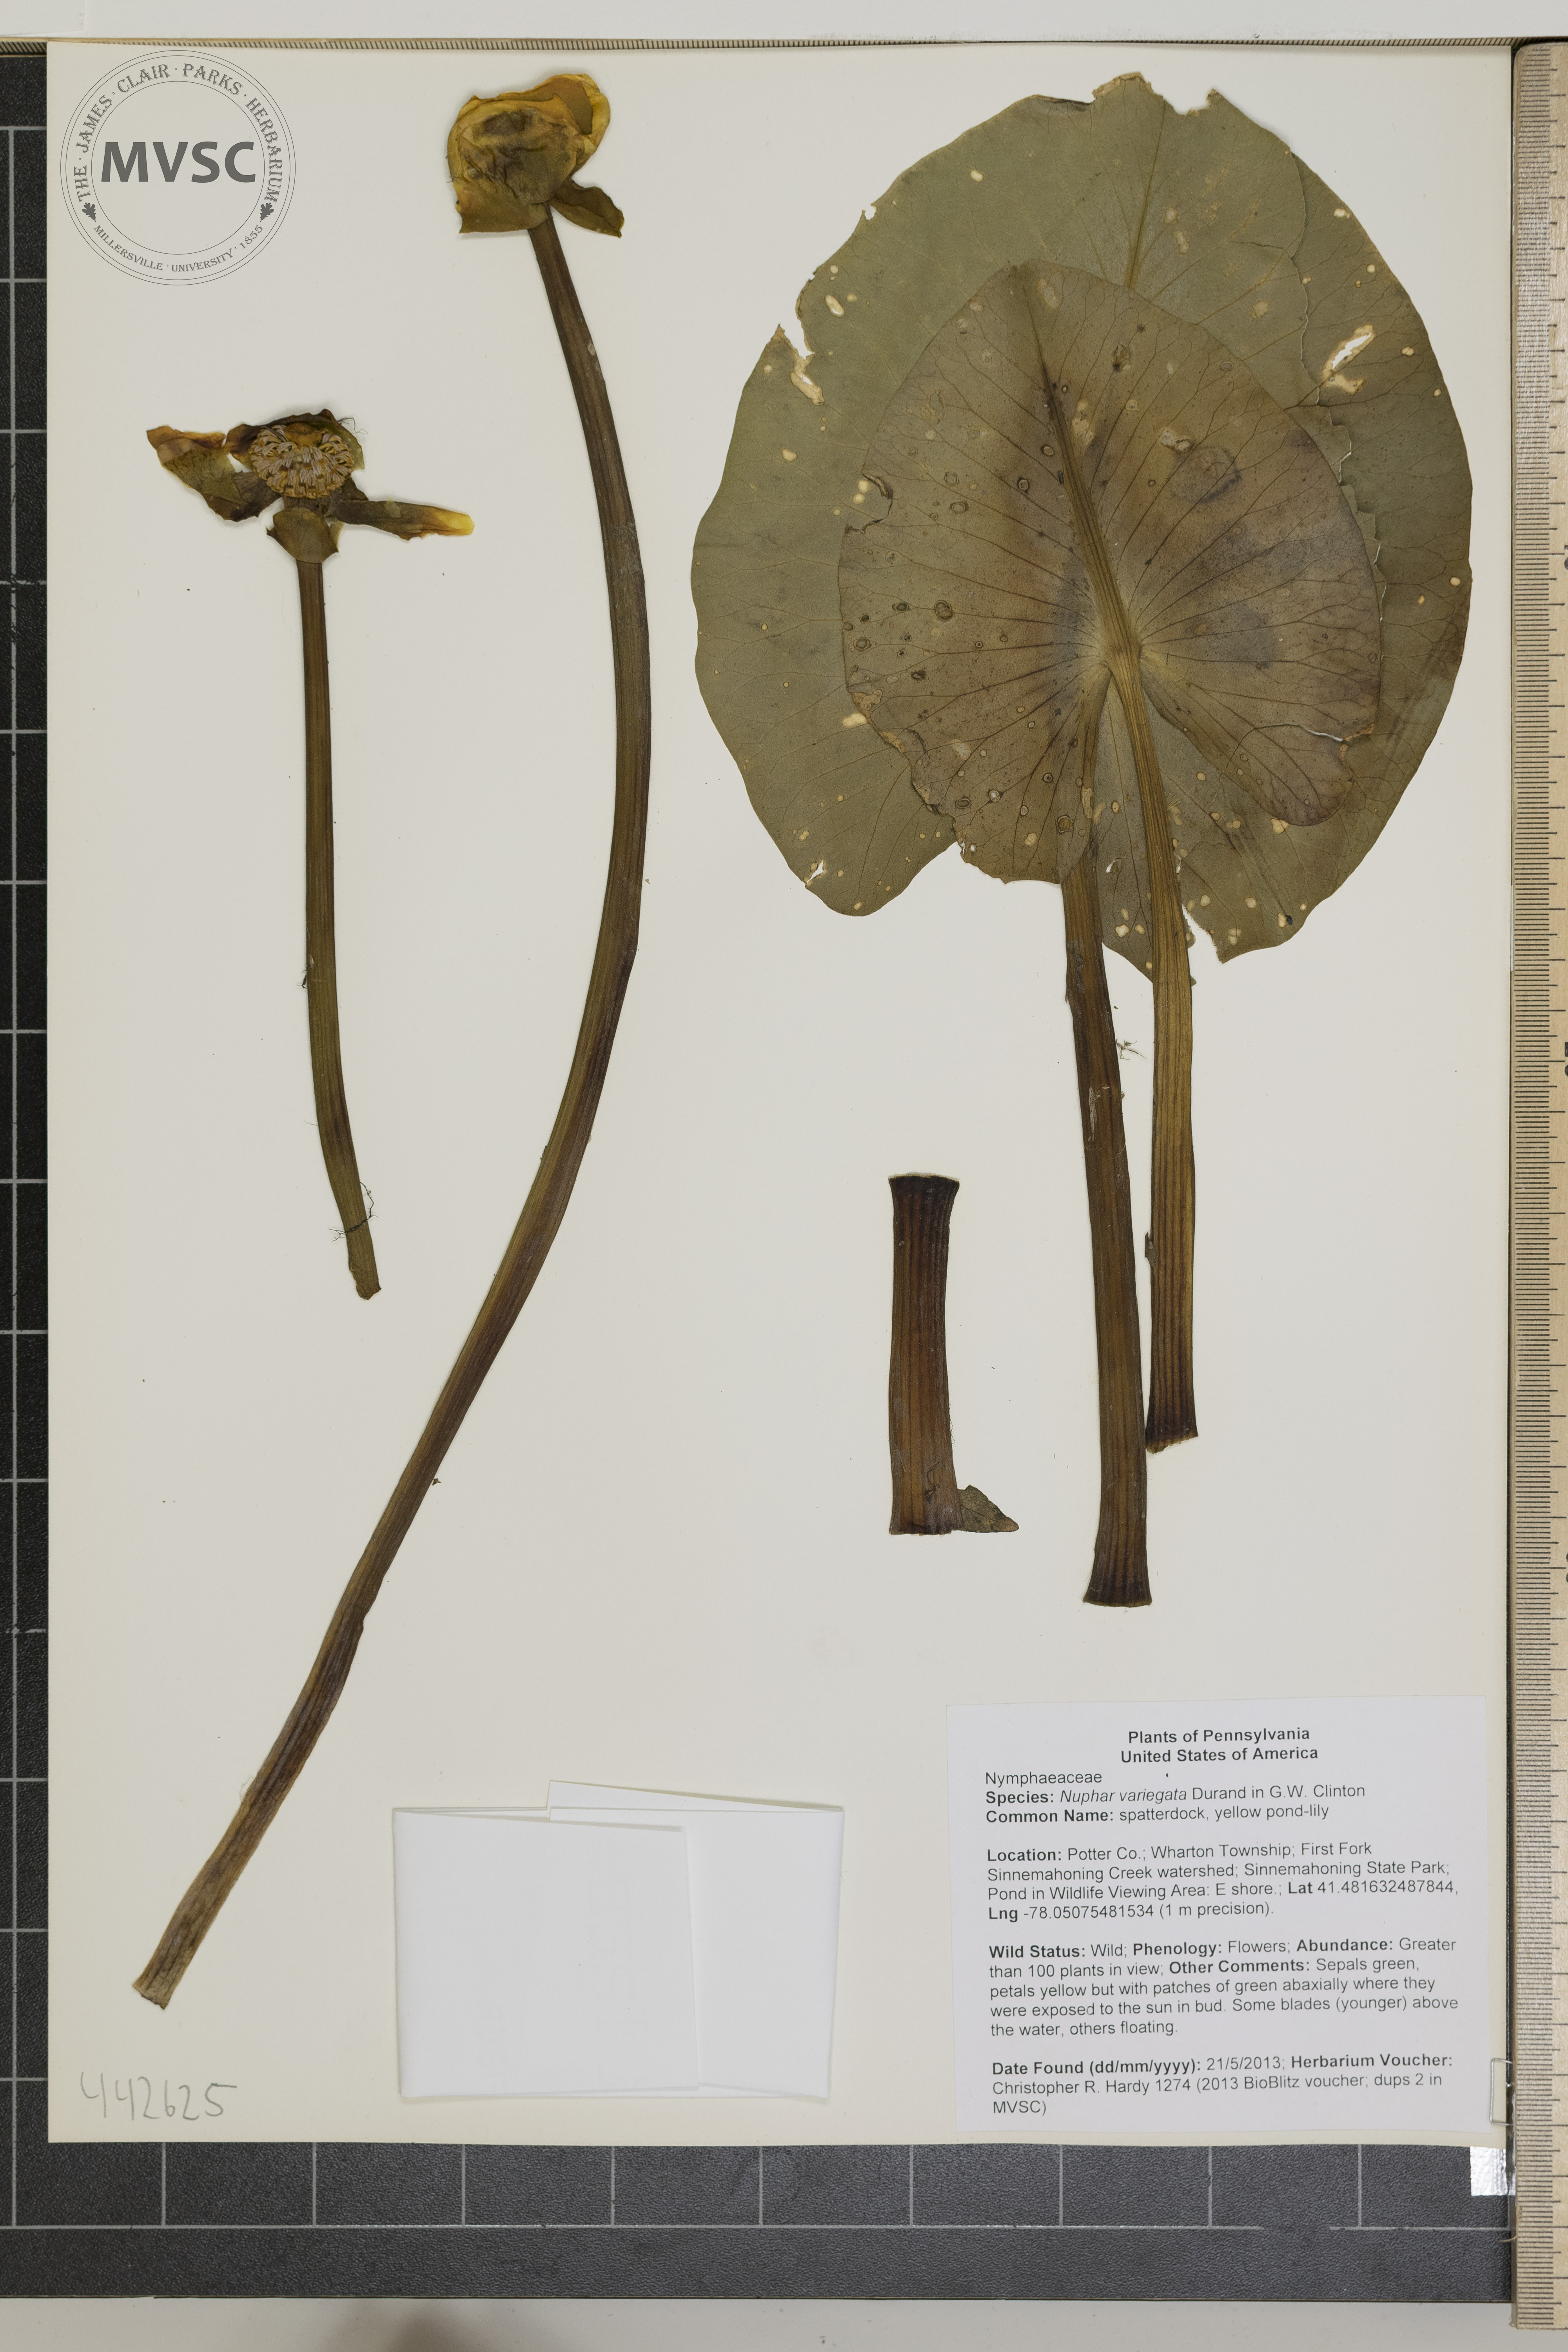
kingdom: Plantae
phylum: Tracheophyta
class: Magnoliopsida
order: Nymphaeales
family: Nymphaeaceae
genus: Nuphar
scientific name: Nuphar variegata
